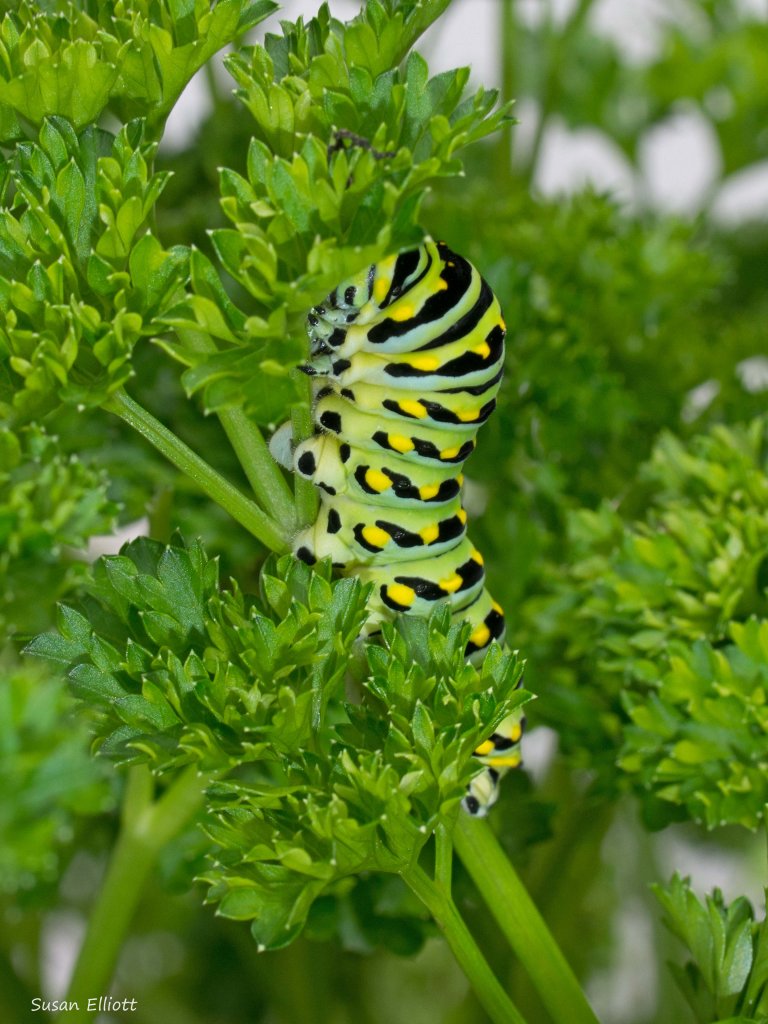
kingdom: Animalia
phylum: Arthropoda
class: Insecta
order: Lepidoptera
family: Papilionidae
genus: Papilio
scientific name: Papilio polyxenes
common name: Black Swallowtail
